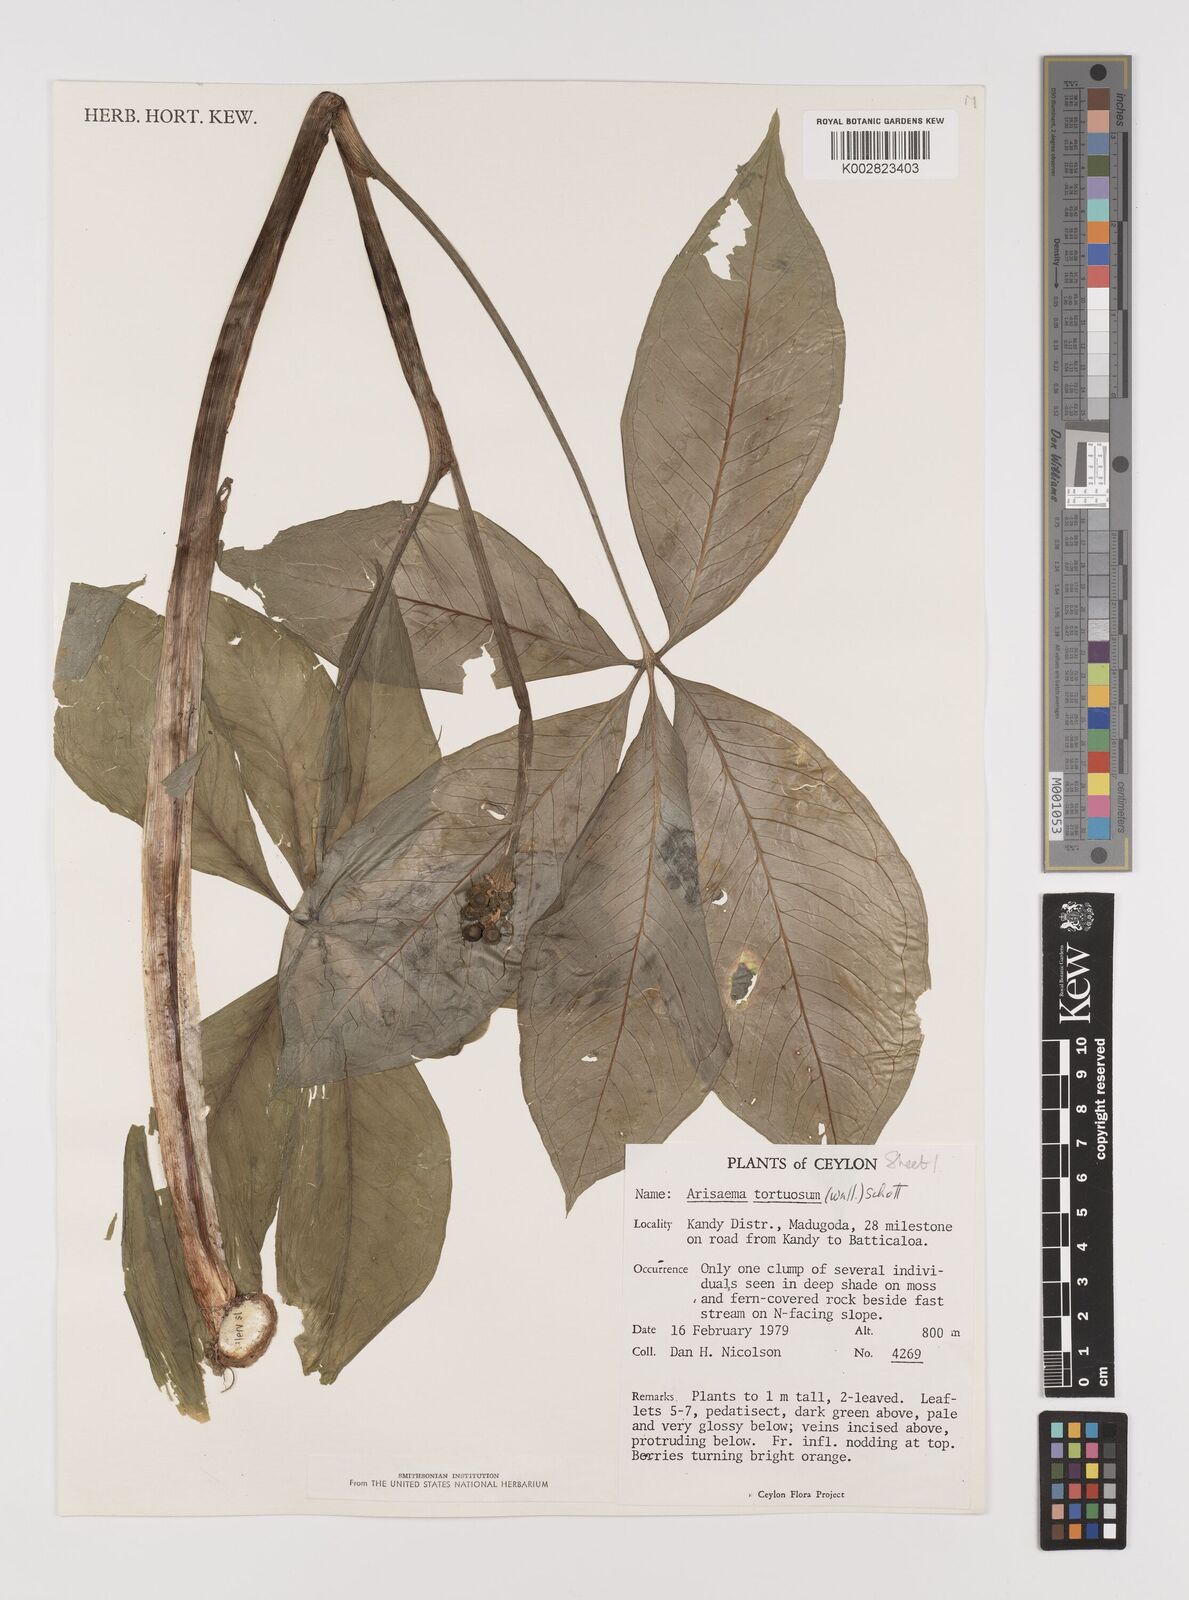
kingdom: Plantae
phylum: Tracheophyta
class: Liliopsida
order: Alismatales
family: Araceae
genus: Arisaema
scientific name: Arisaema tortuosum
